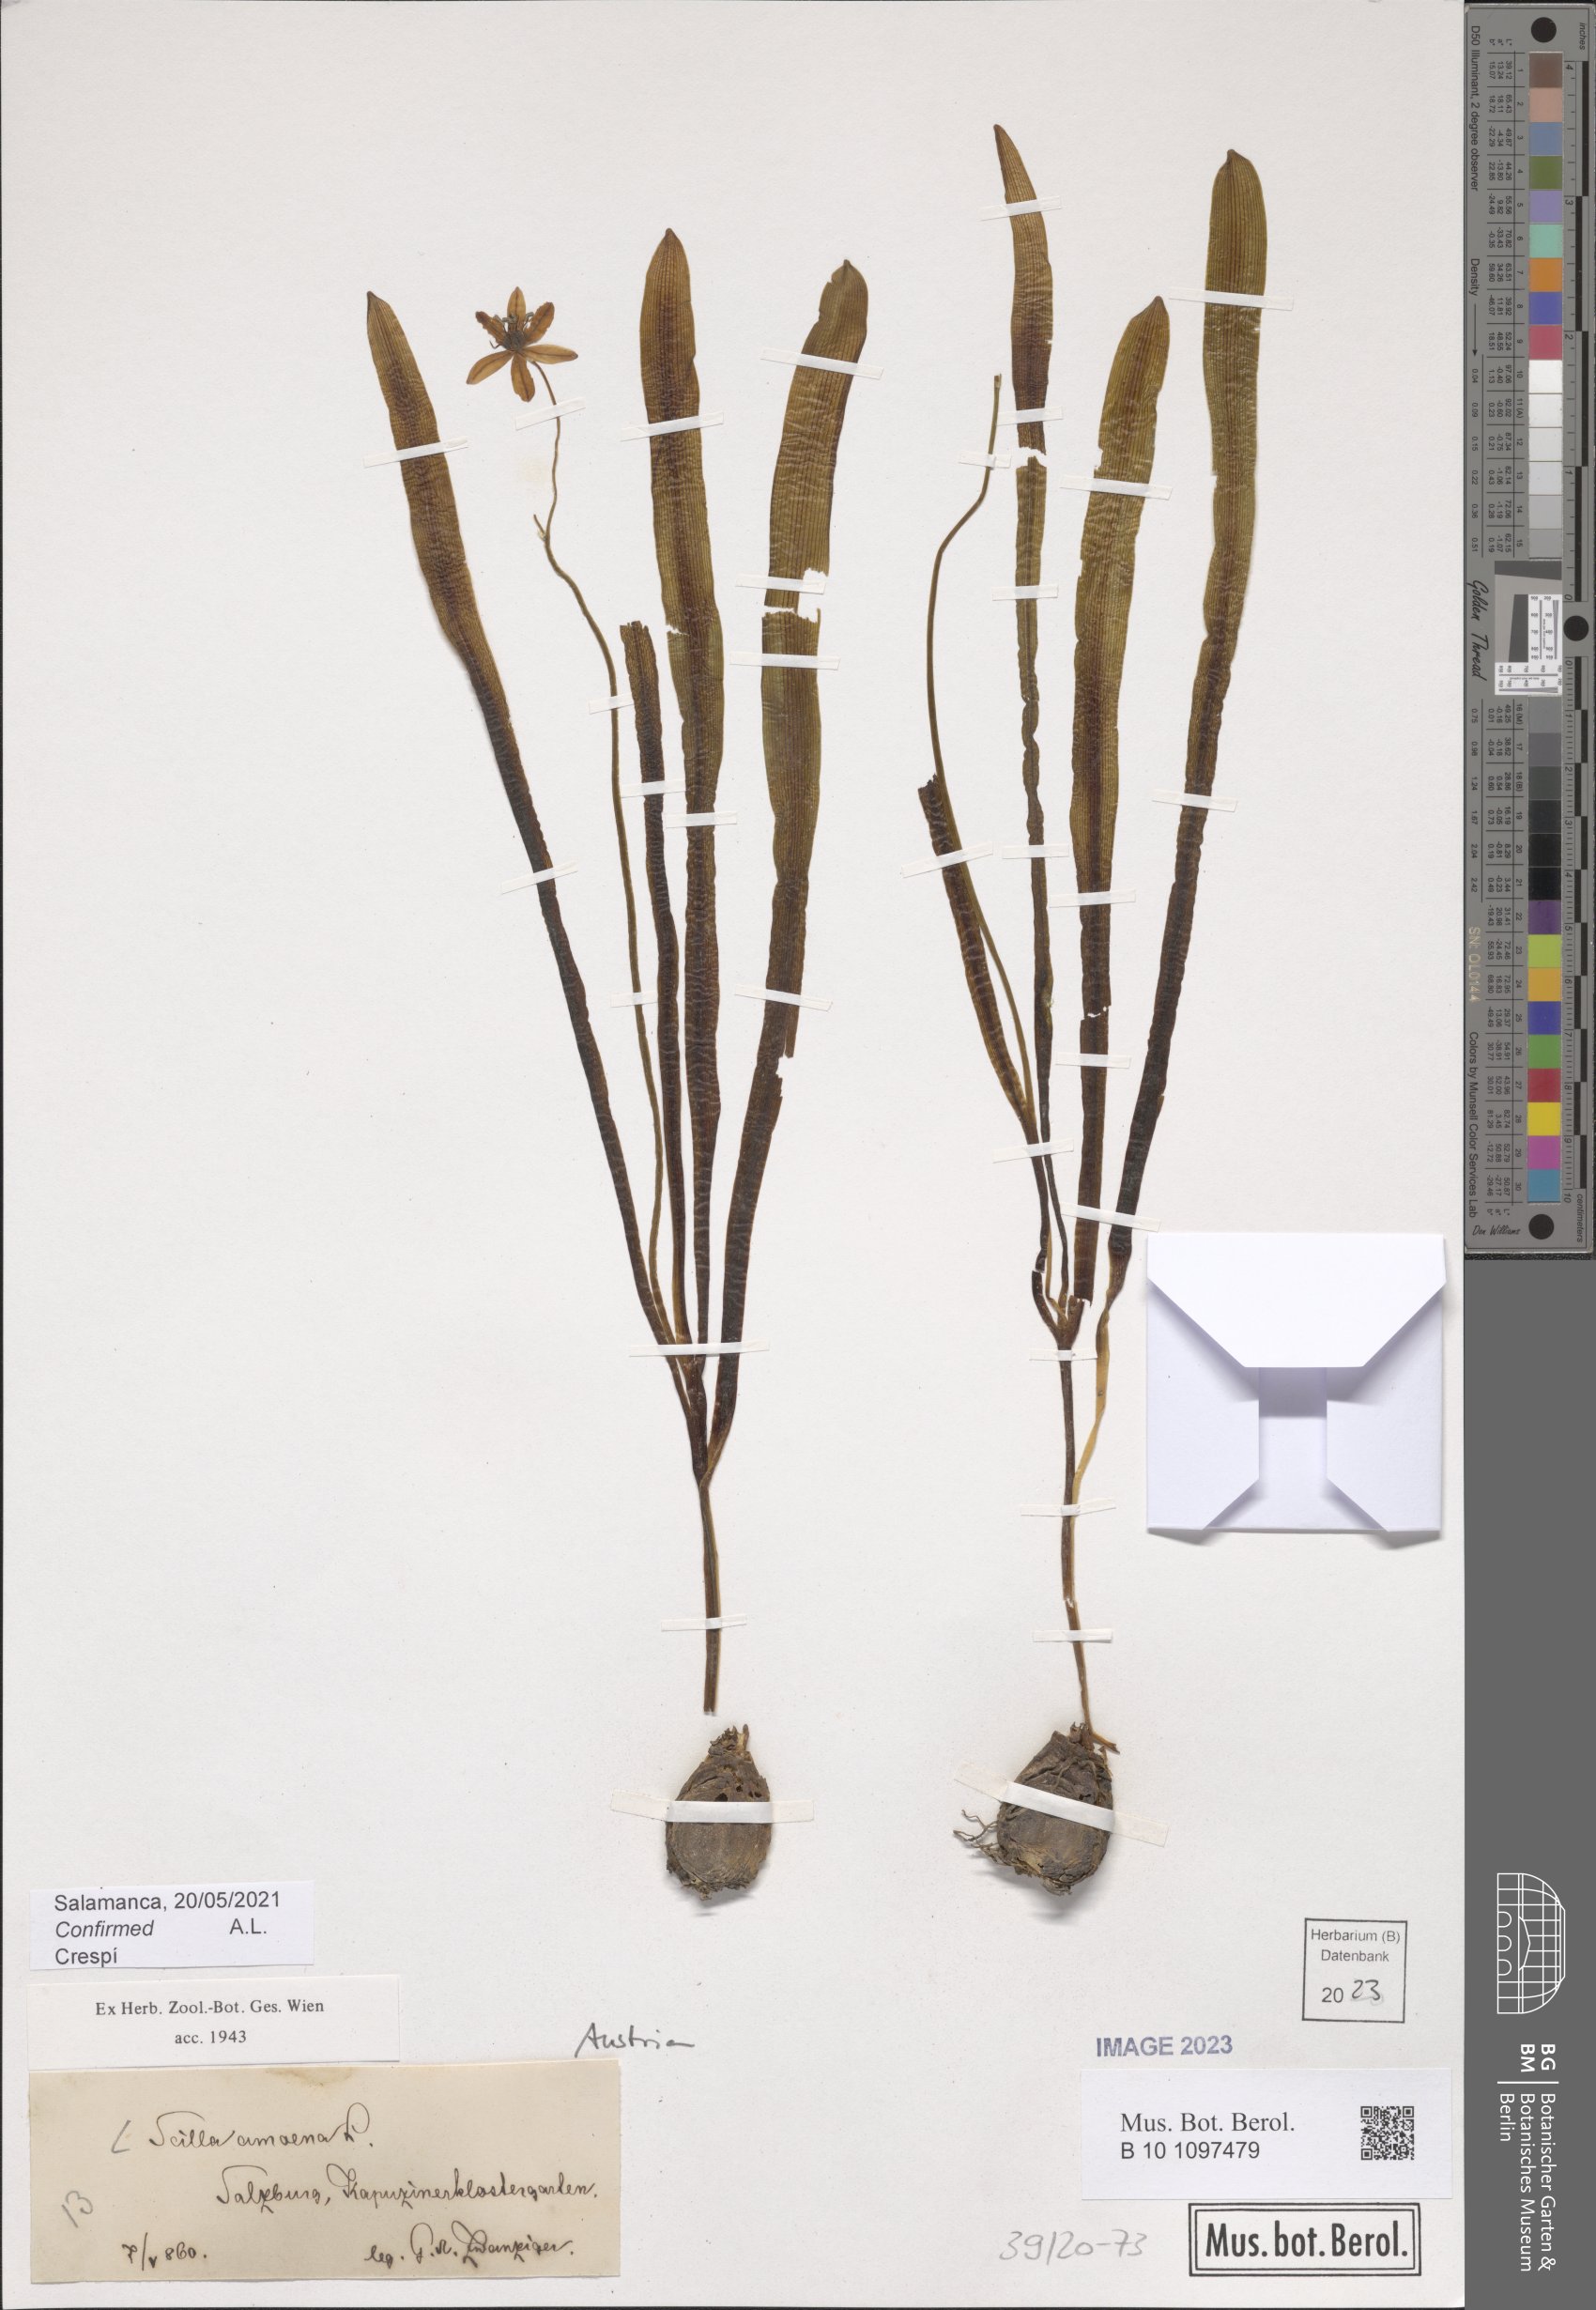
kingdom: Plantae
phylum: Tracheophyta
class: Liliopsida
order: Asparagales
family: Asparagaceae
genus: Scilla
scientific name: Scilla amoena
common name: Star-hyacinth
